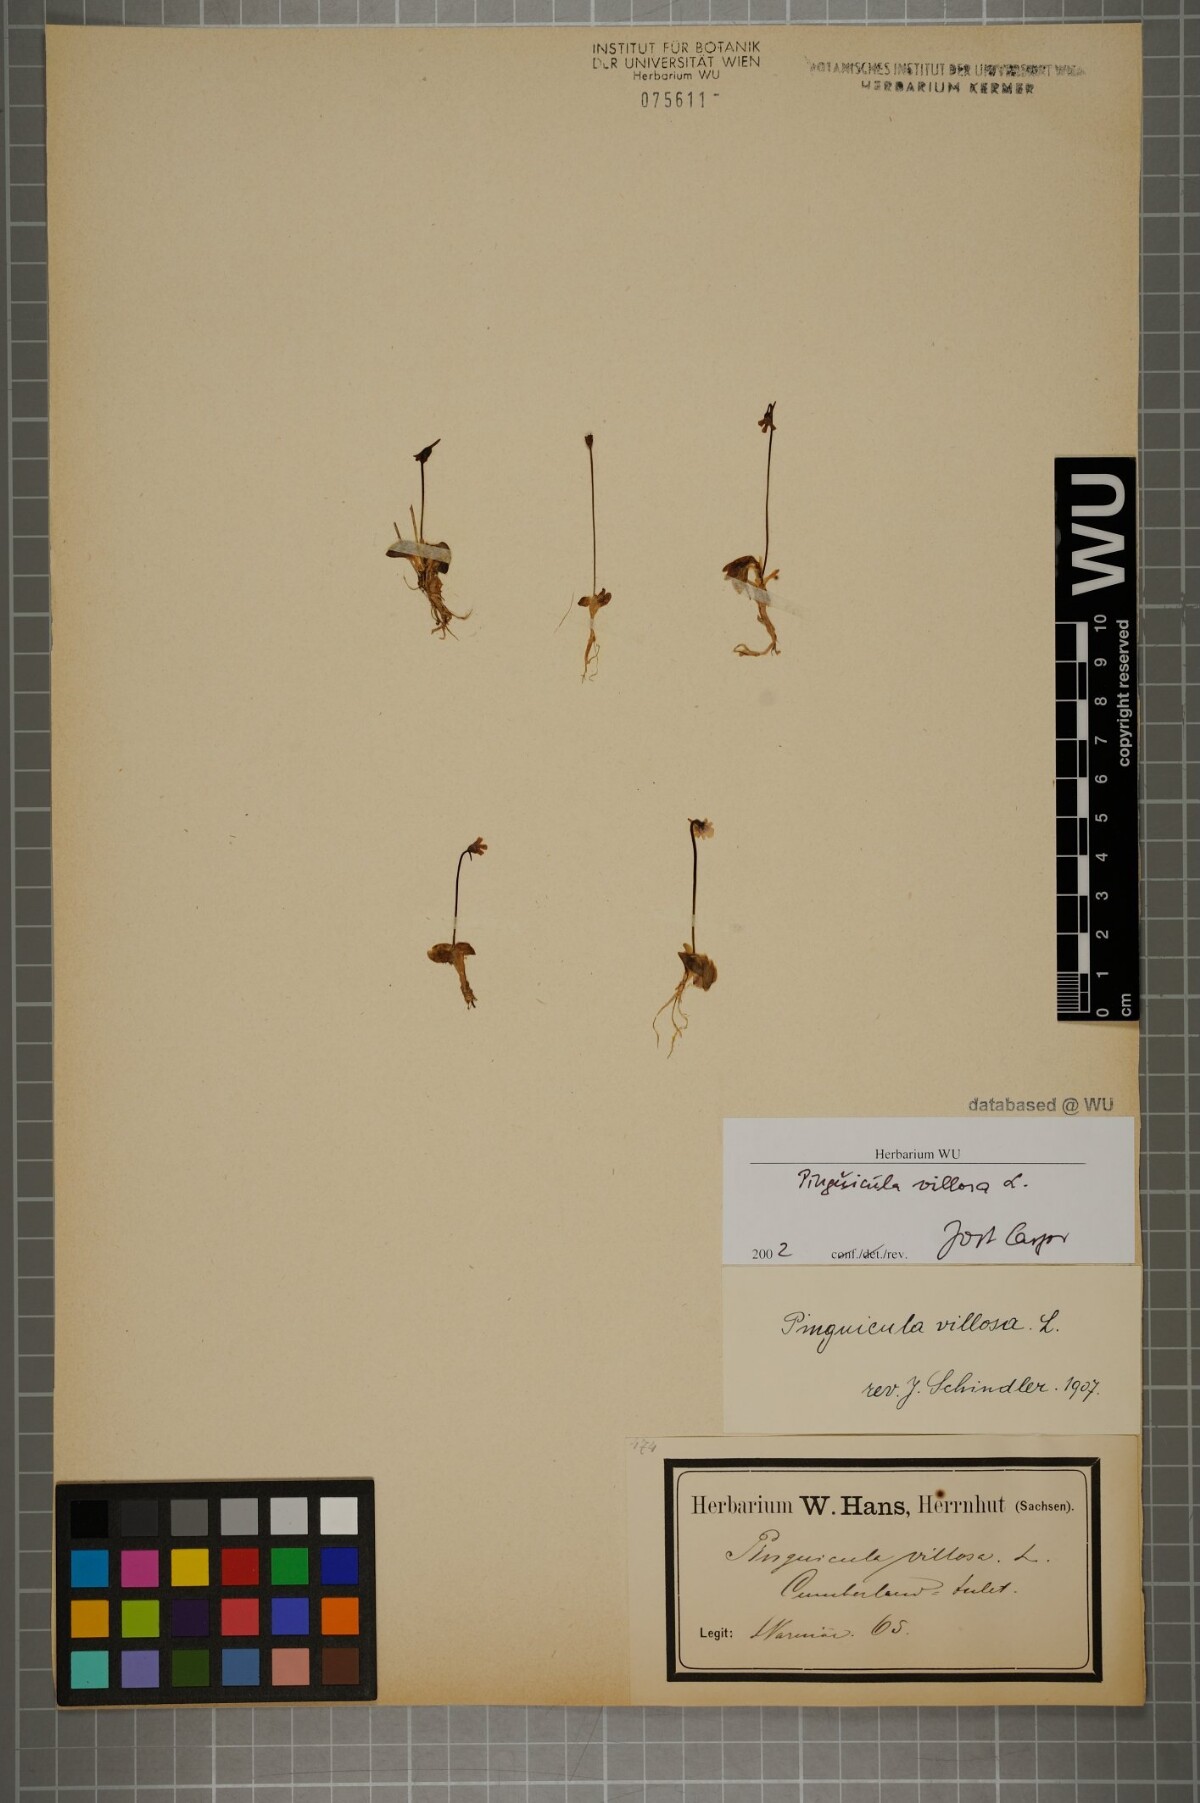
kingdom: Plantae
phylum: Tracheophyta
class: Magnoliopsida
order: Lamiales
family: Lentibulariaceae
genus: Pinguicula
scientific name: Pinguicula villosa
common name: Hairy butterwort
